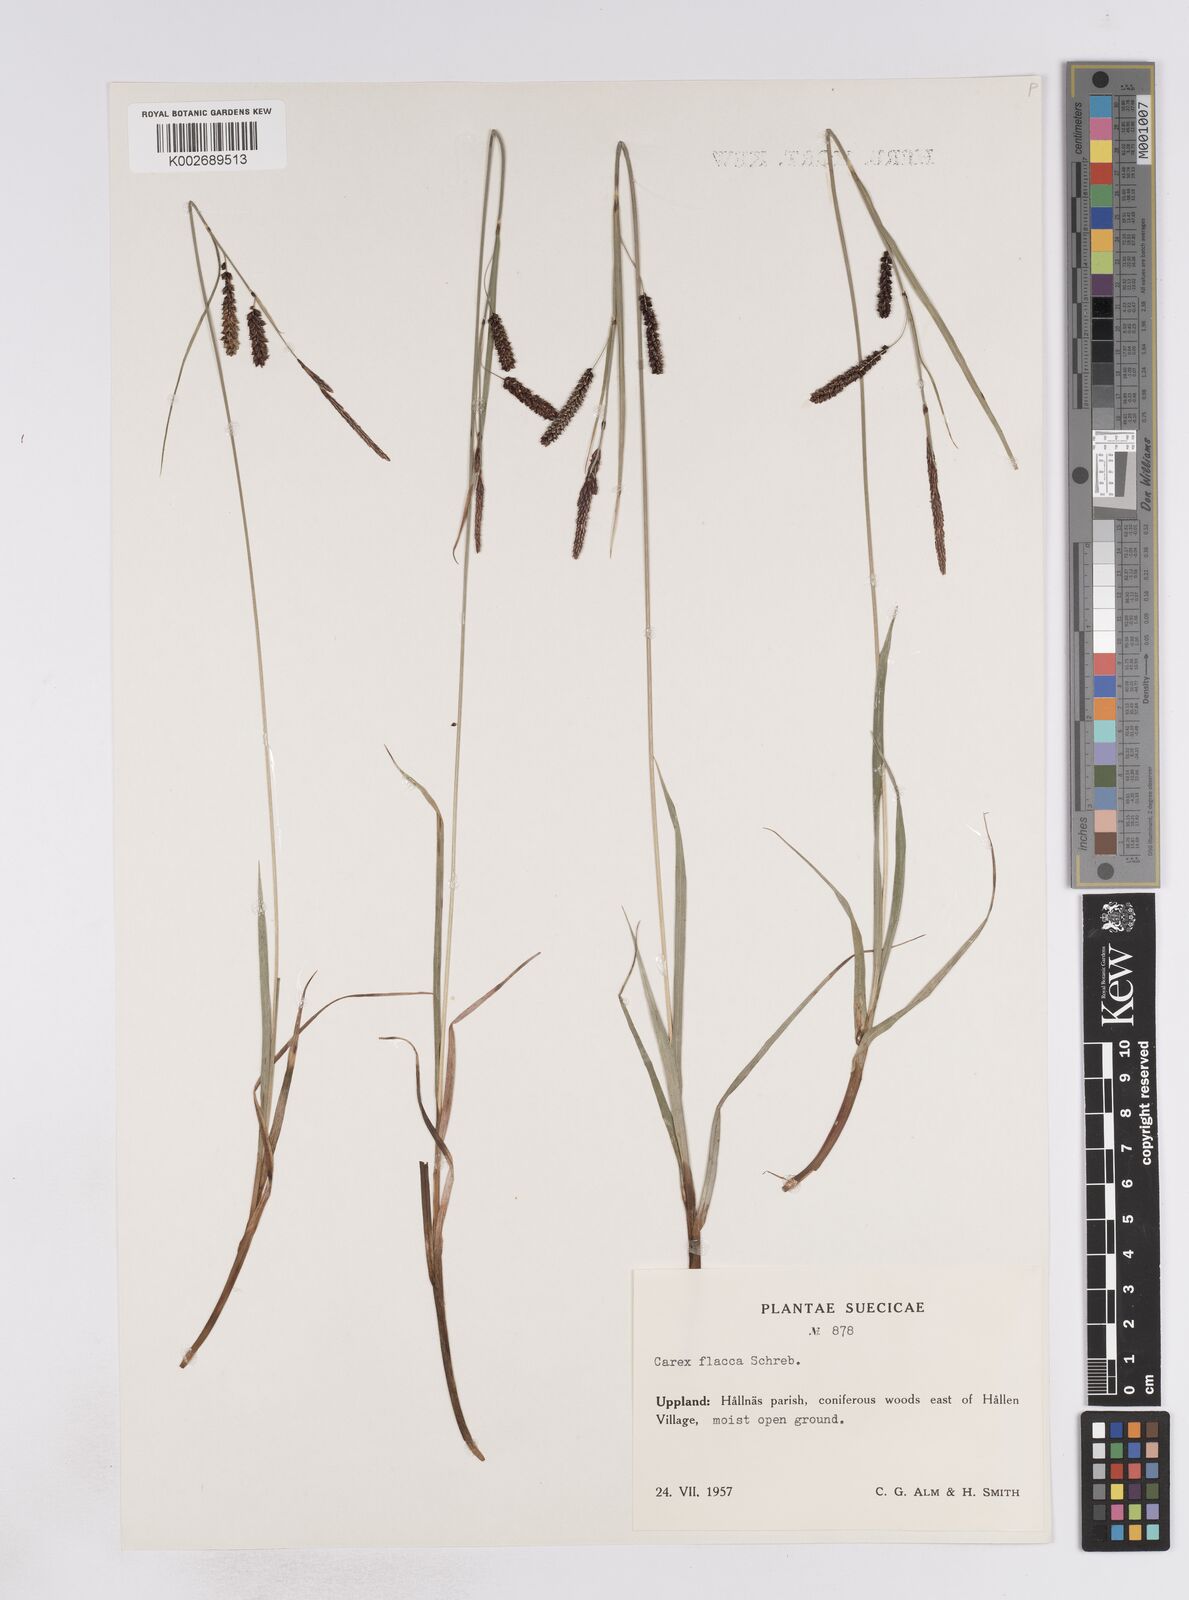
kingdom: Plantae
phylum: Tracheophyta
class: Liliopsida
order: Poales
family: Cyperaceae
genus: Carex
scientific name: Carex flacca
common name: Glaucous sedge
